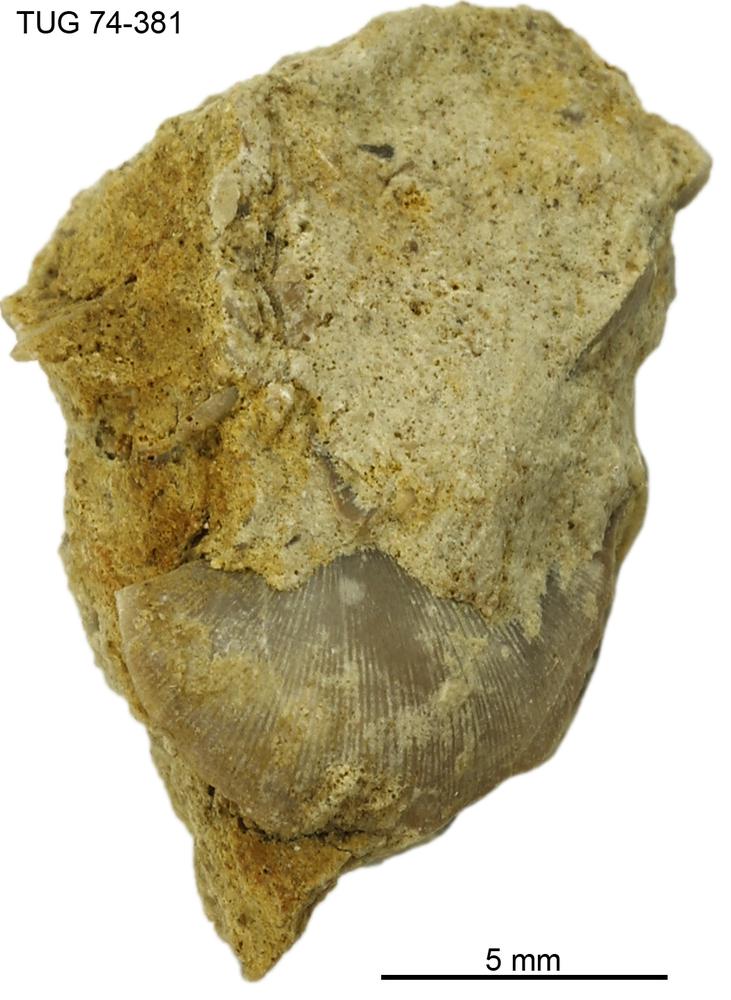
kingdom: Animalia
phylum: Brachiopoda
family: Sowerbyellidae
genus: Sowerbyella
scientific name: Sowerbyella
